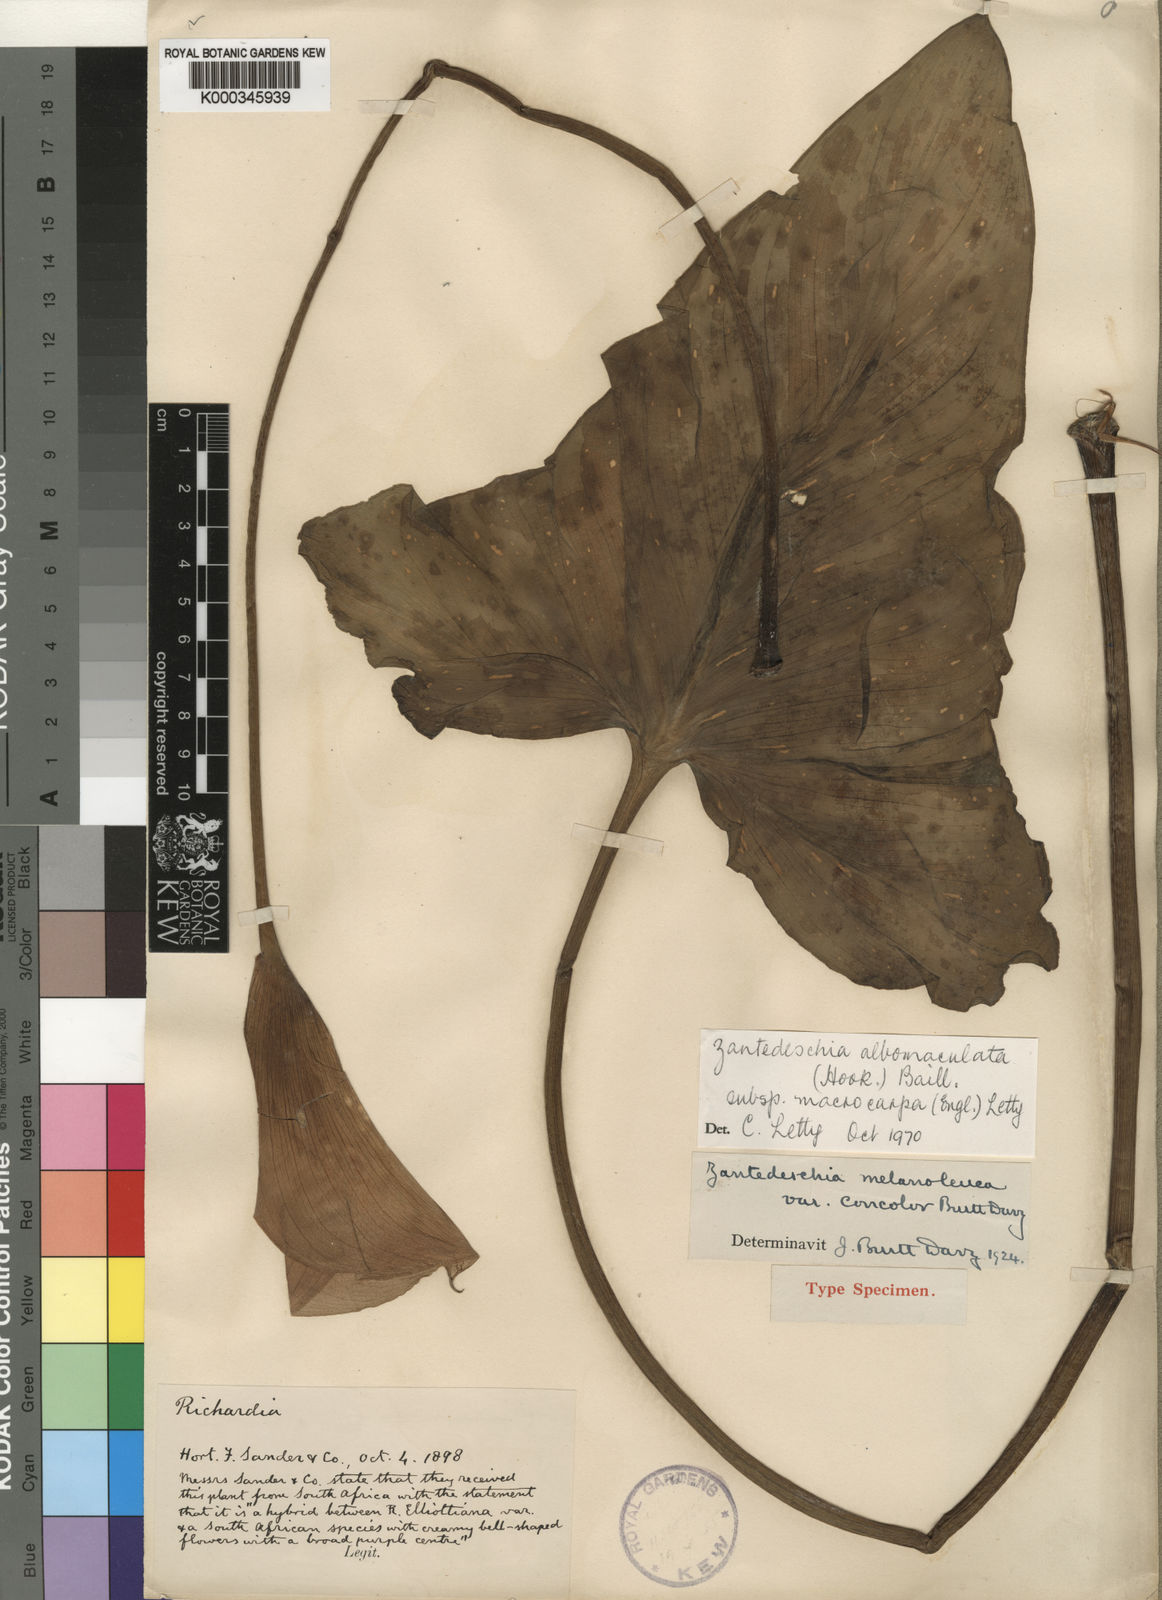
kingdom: Plantae
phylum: Tracheophyta
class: Liliopsida
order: Alismatales
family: Araceae
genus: Zantedeschia
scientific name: Zantedeschia albomaculata
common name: Spotted calla lily
